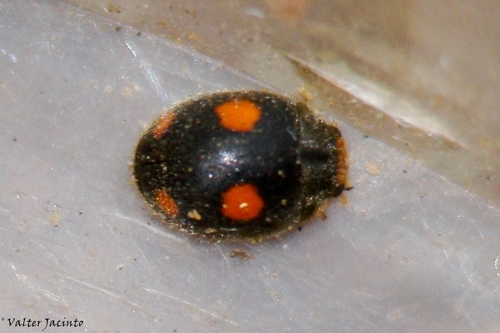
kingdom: Animalia
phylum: Arthropoda
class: Insecta
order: Coleoptera
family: Coccinellidae
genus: Platynaspis
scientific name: Platynaspis luteorubra
